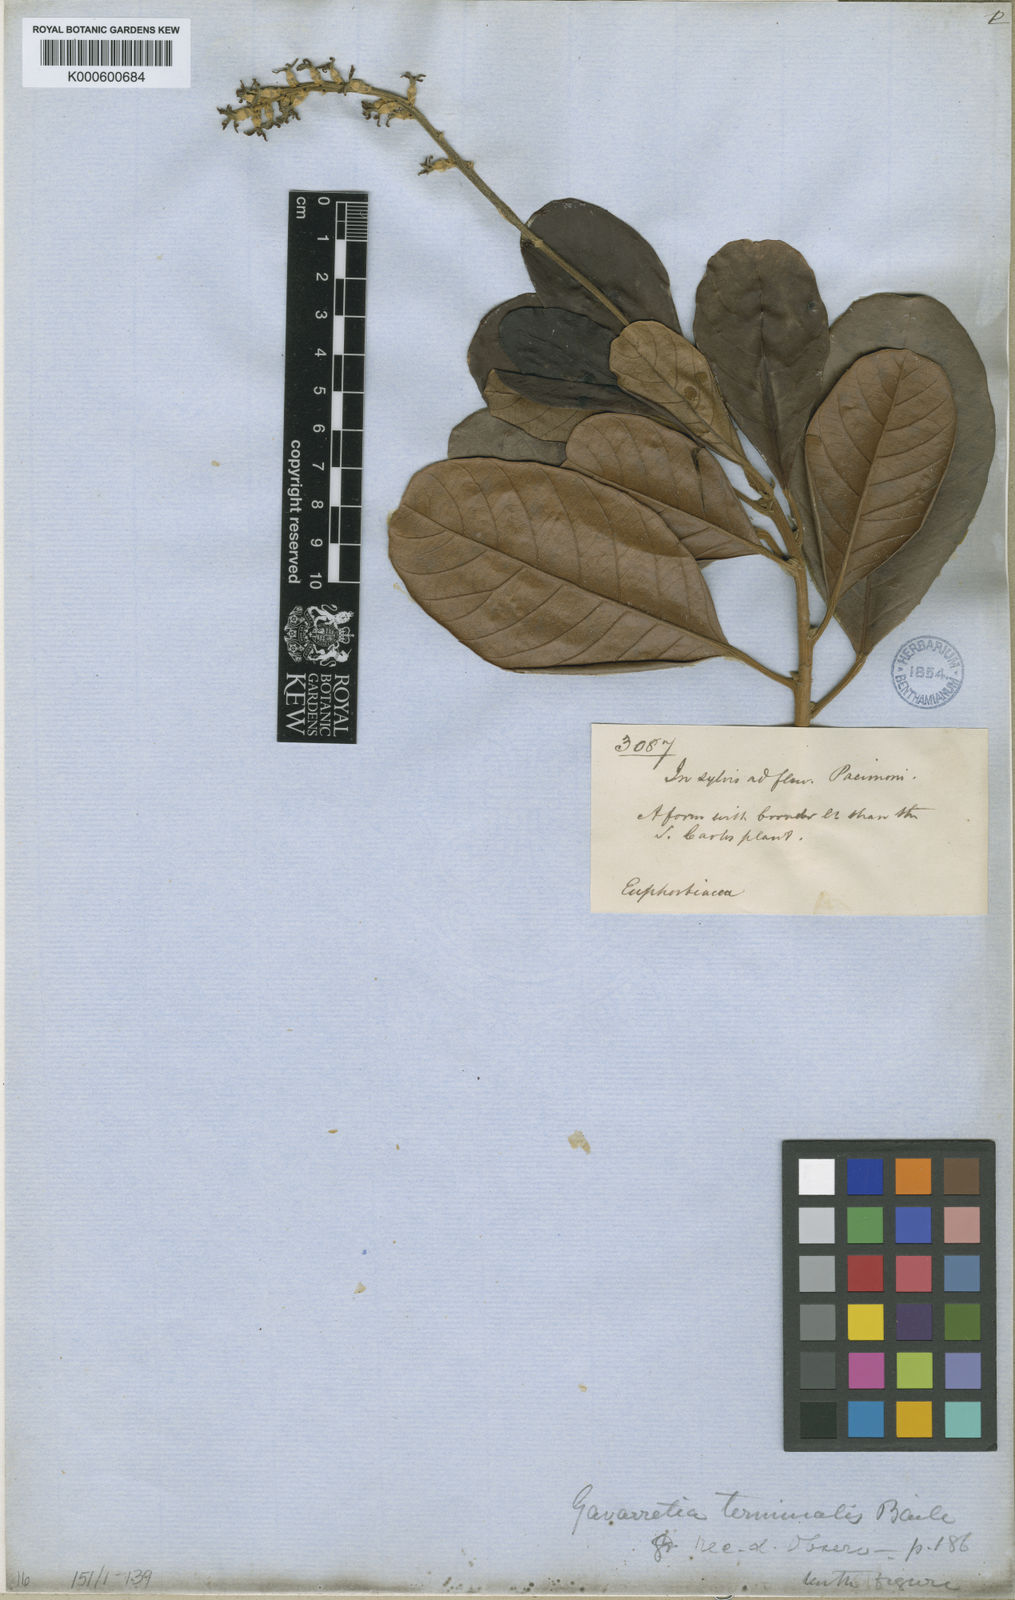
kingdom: Plantae
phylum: Tracheophyta
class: Magnoliopsida
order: Malpighiales
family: Euphorbiaceae
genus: Conceveiba
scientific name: Conceveiba
